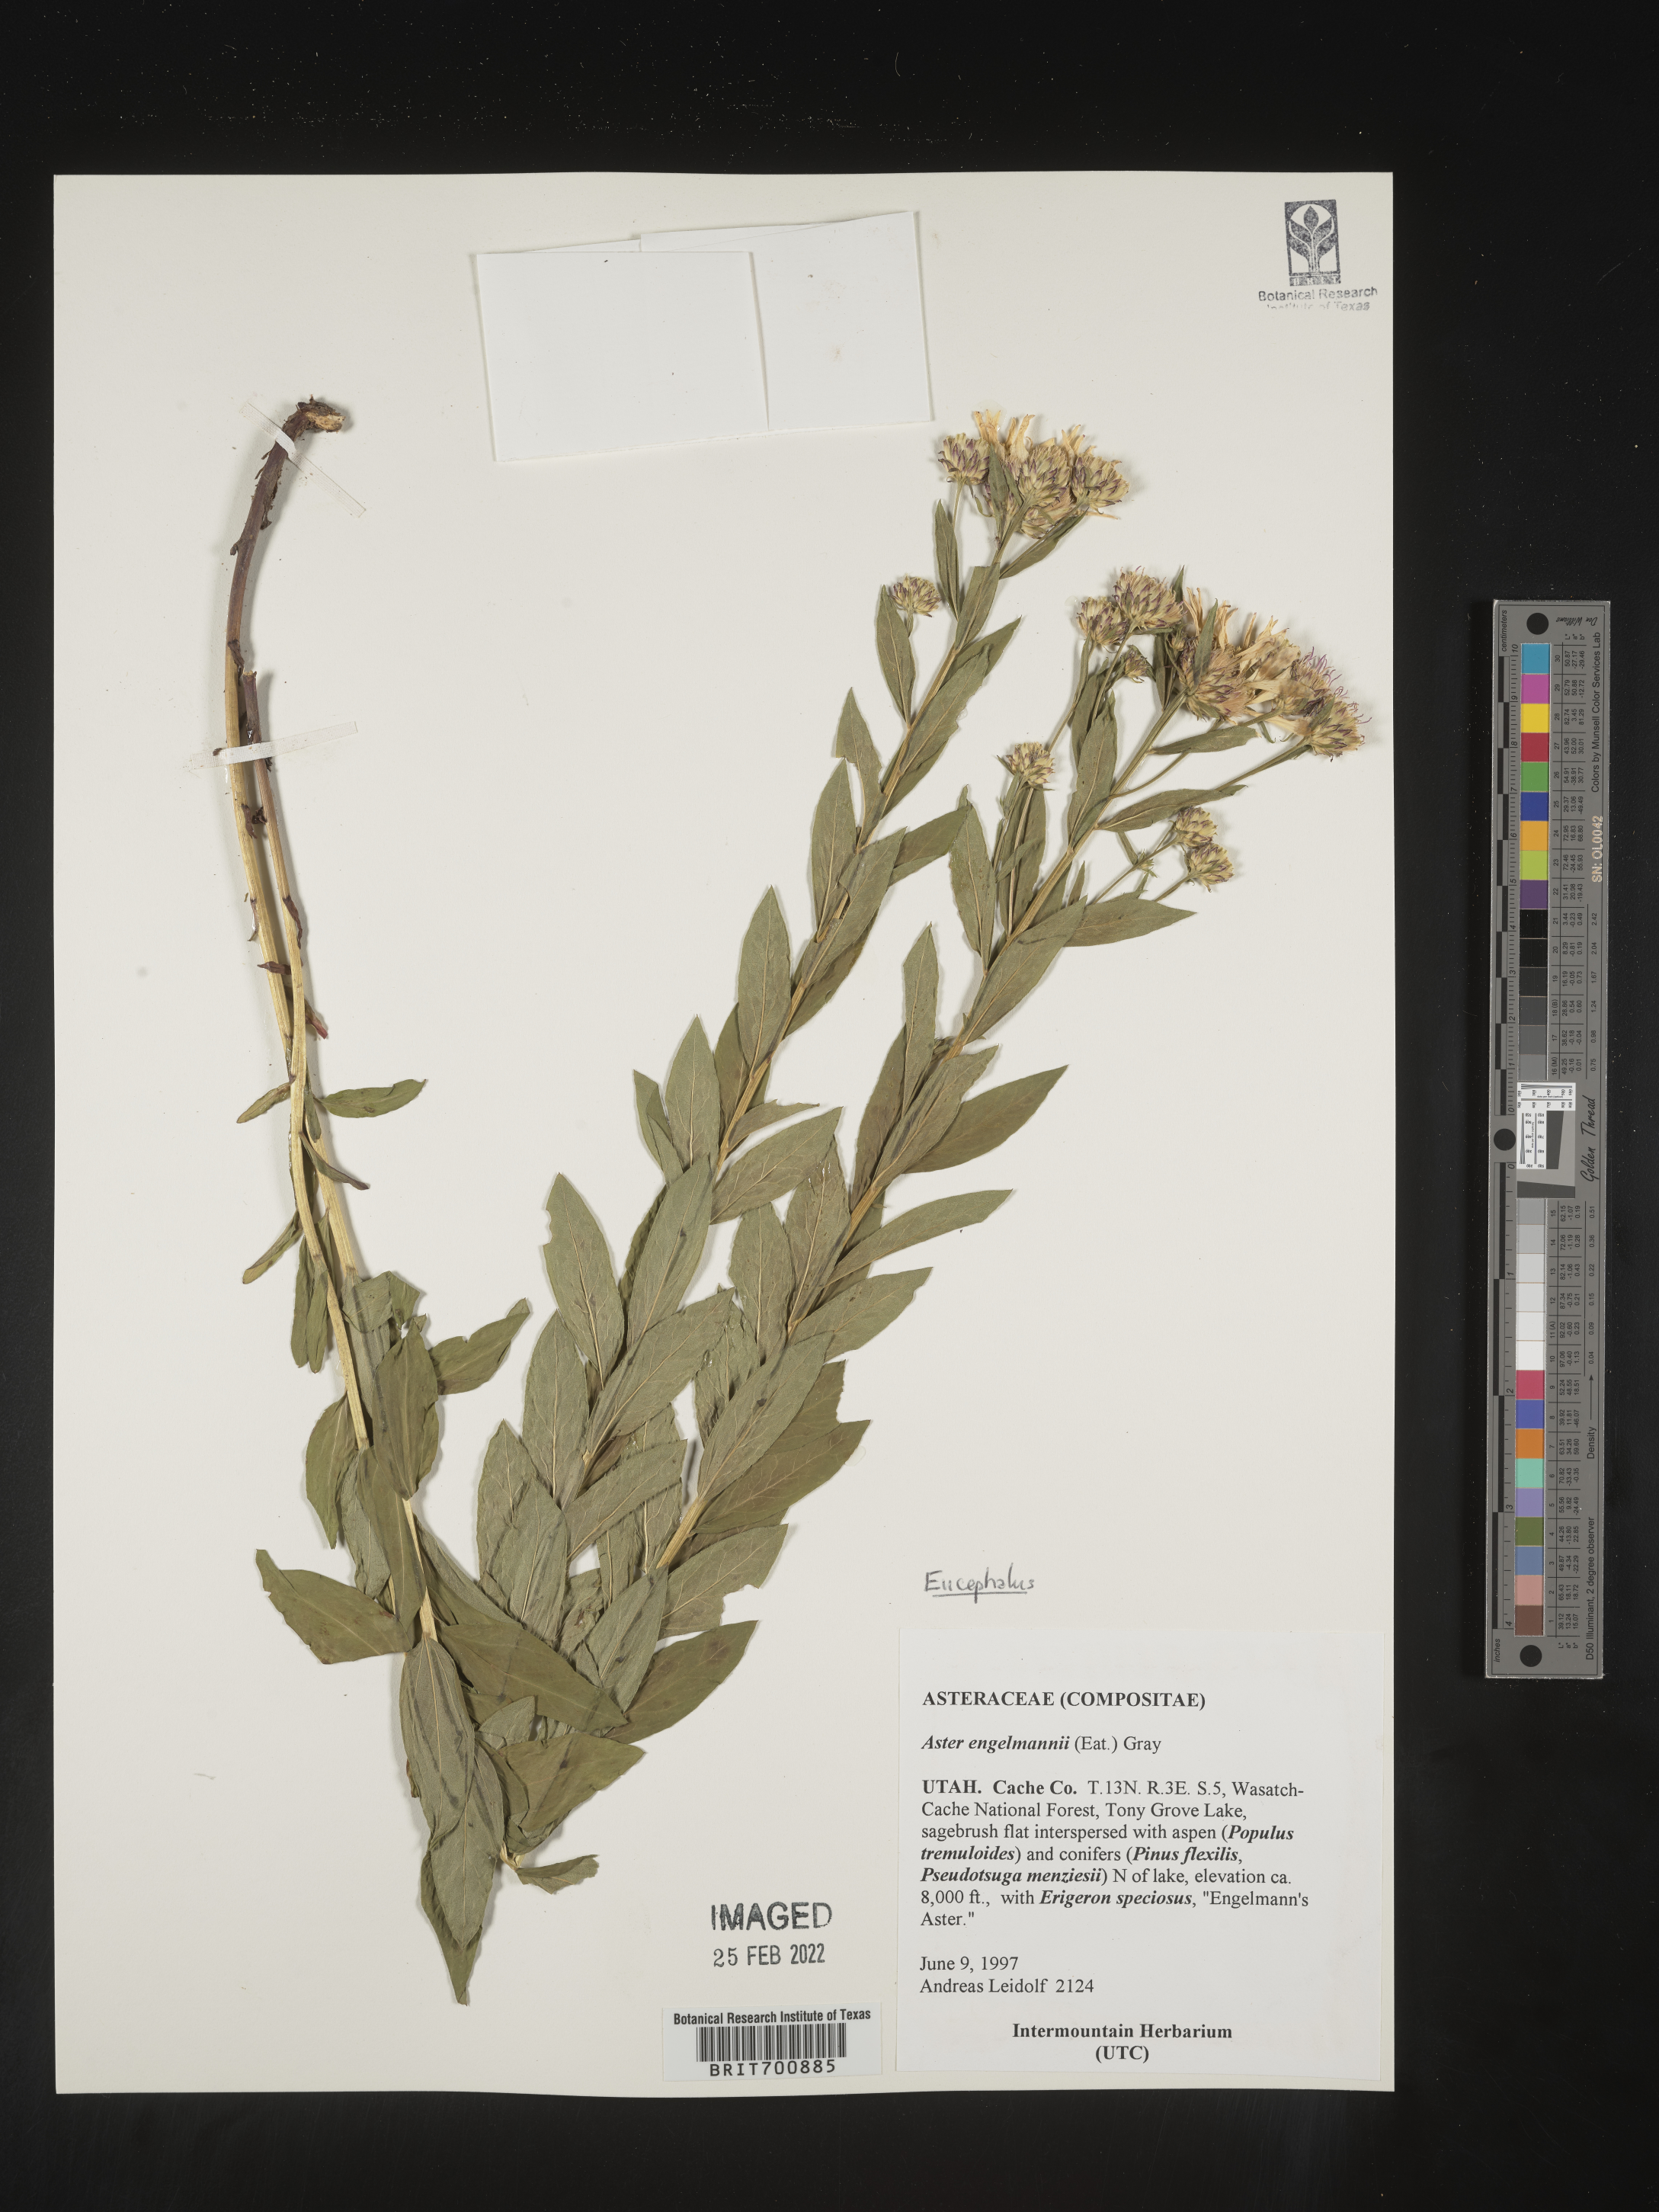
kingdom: Plantae
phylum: Tracheophyta
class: Magnoliopsida
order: Asterales
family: Asteraceae
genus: Eucephalus
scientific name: Eucephalus engelmannii
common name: Engelmann's aster
